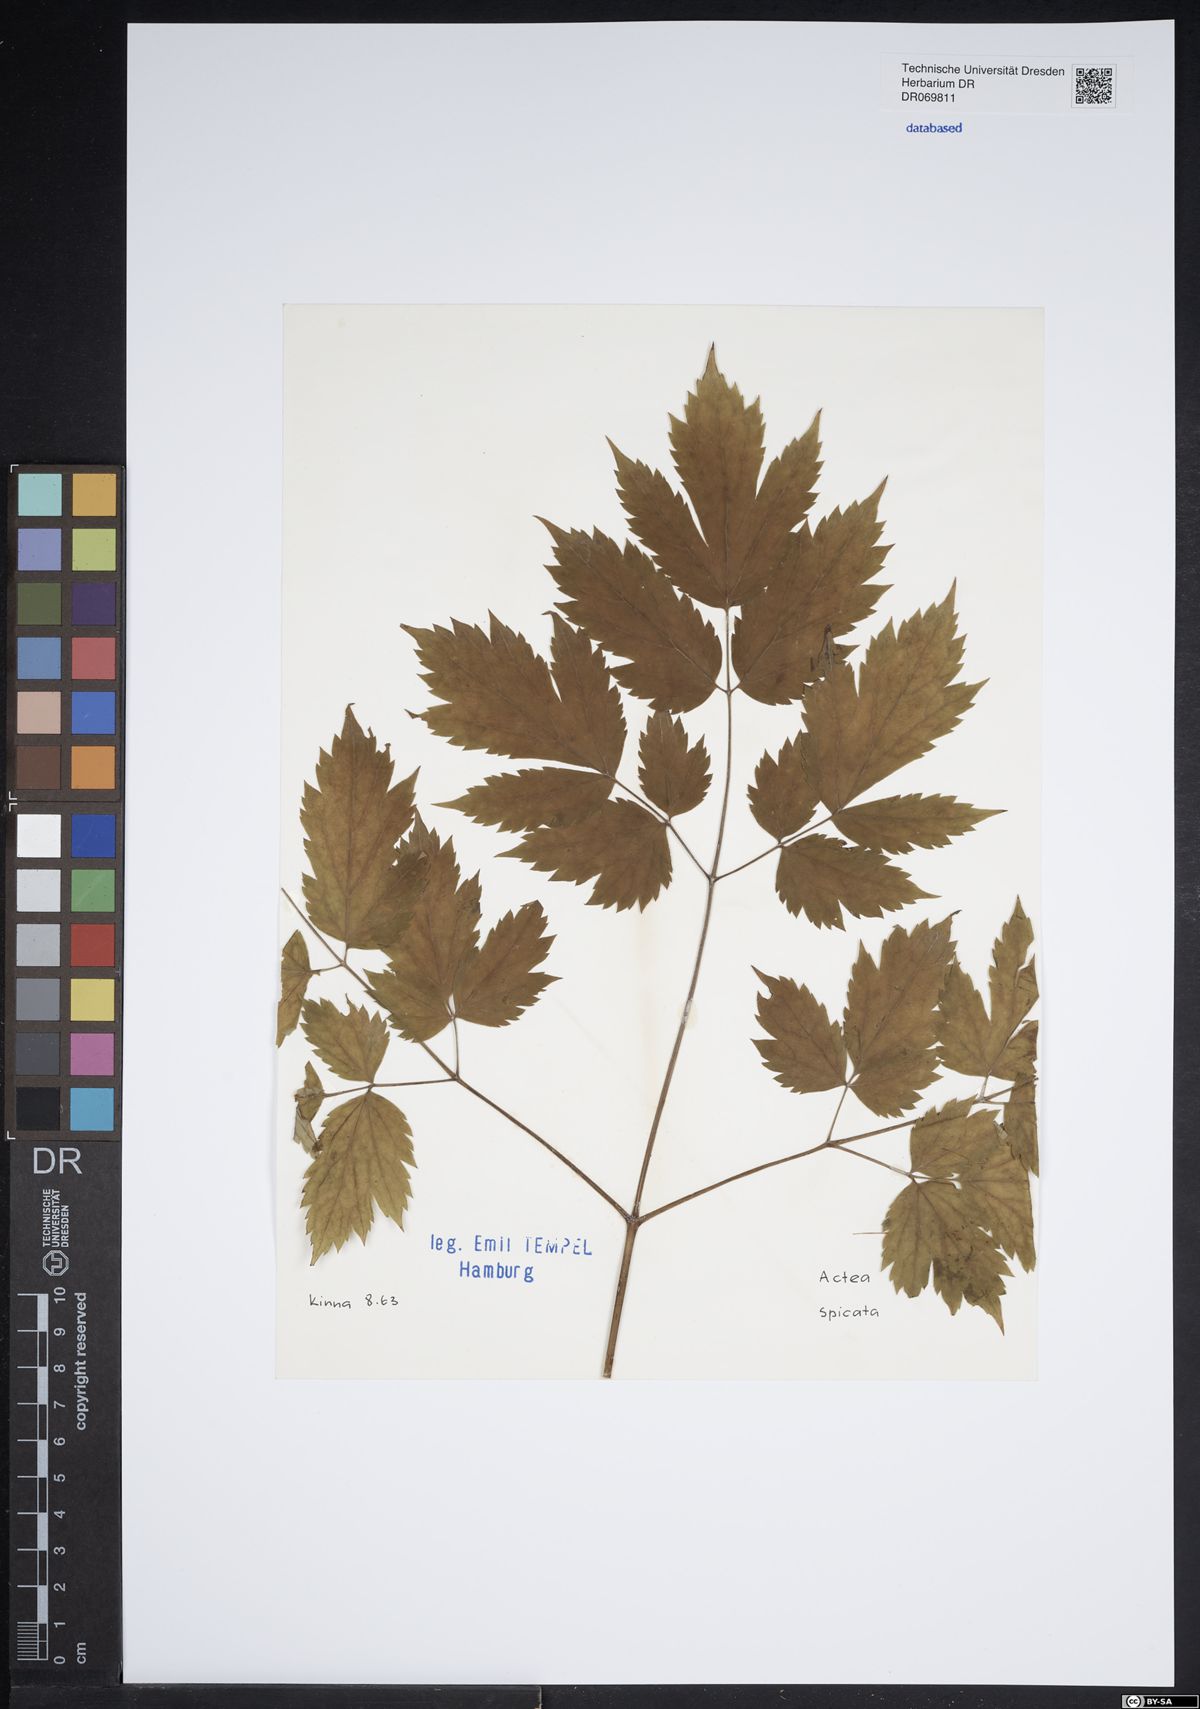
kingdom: Plantae
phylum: Tracheophyta
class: Magnoliopsida
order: Ranunculales
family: Ranunculaceae
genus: Actaea
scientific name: Actaea spicata
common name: Baneberry
